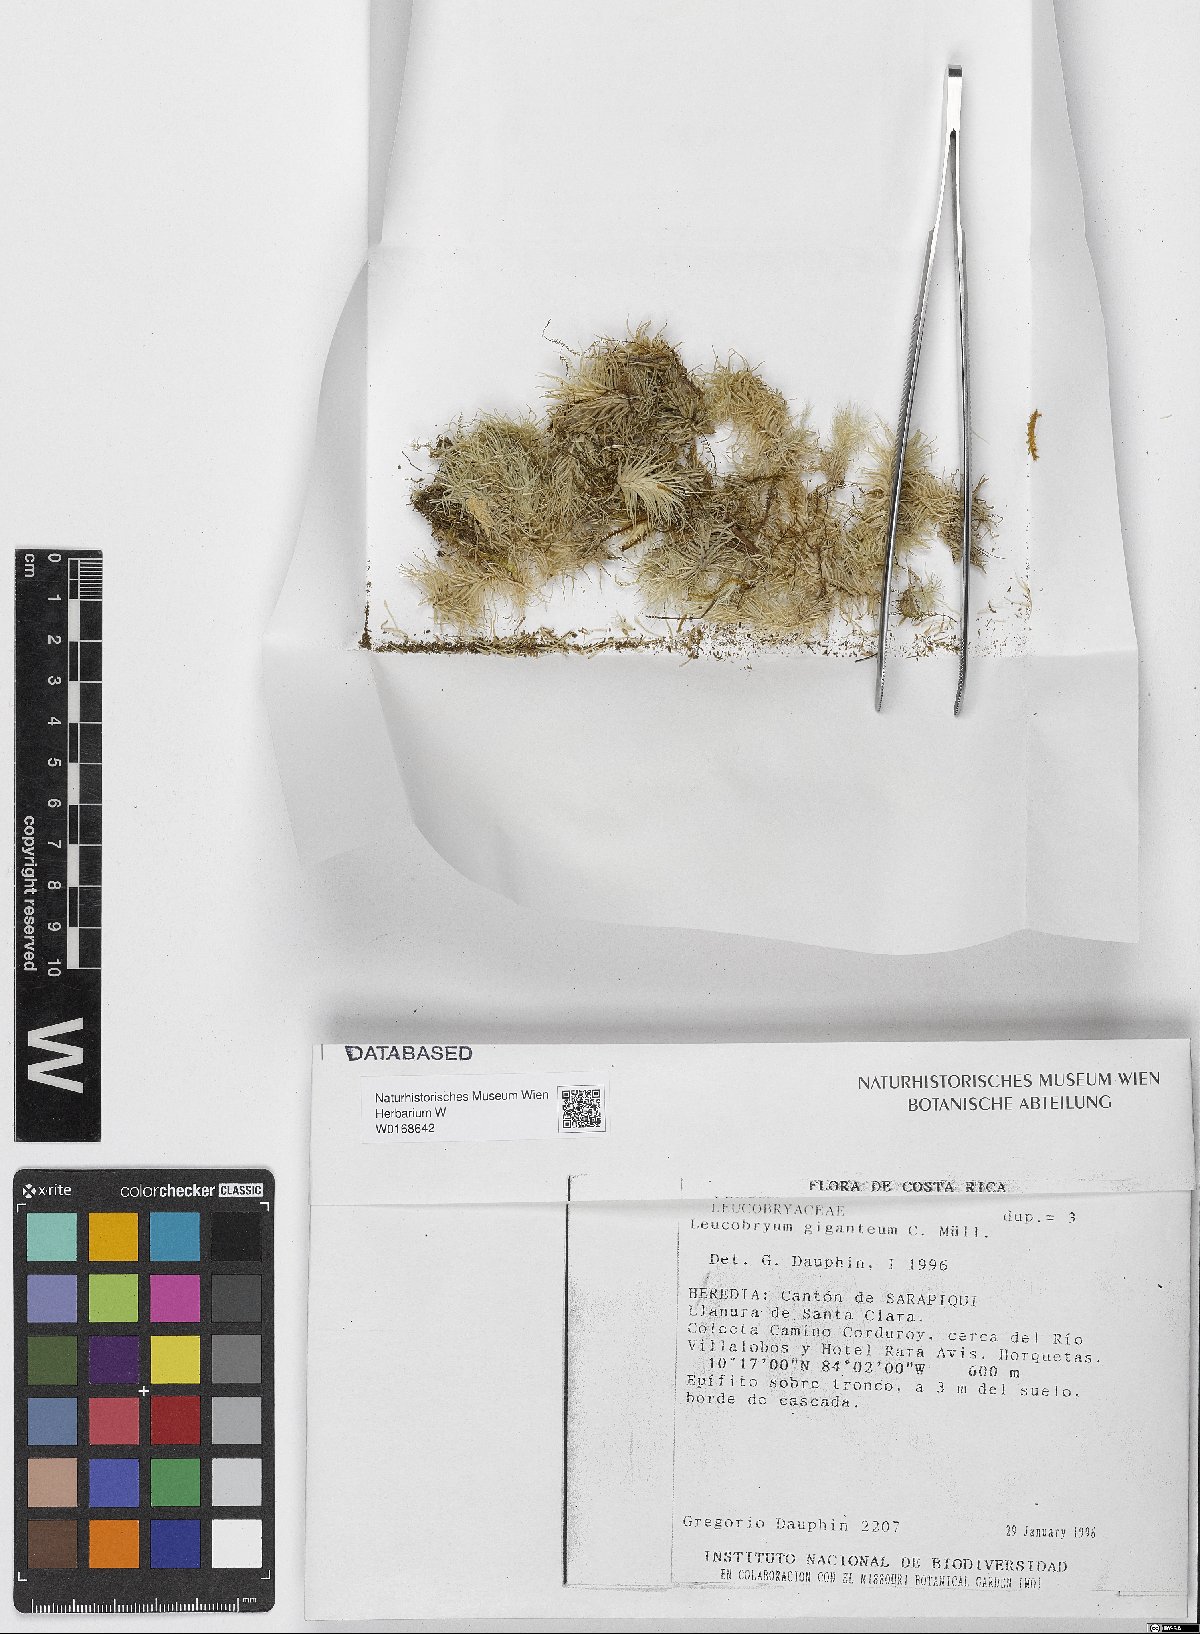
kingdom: Plantae
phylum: Bryophyta
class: Bryopsida
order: Dicranales
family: Leucobryaceae
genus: Leucobryum
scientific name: Leucobryum giganteum
